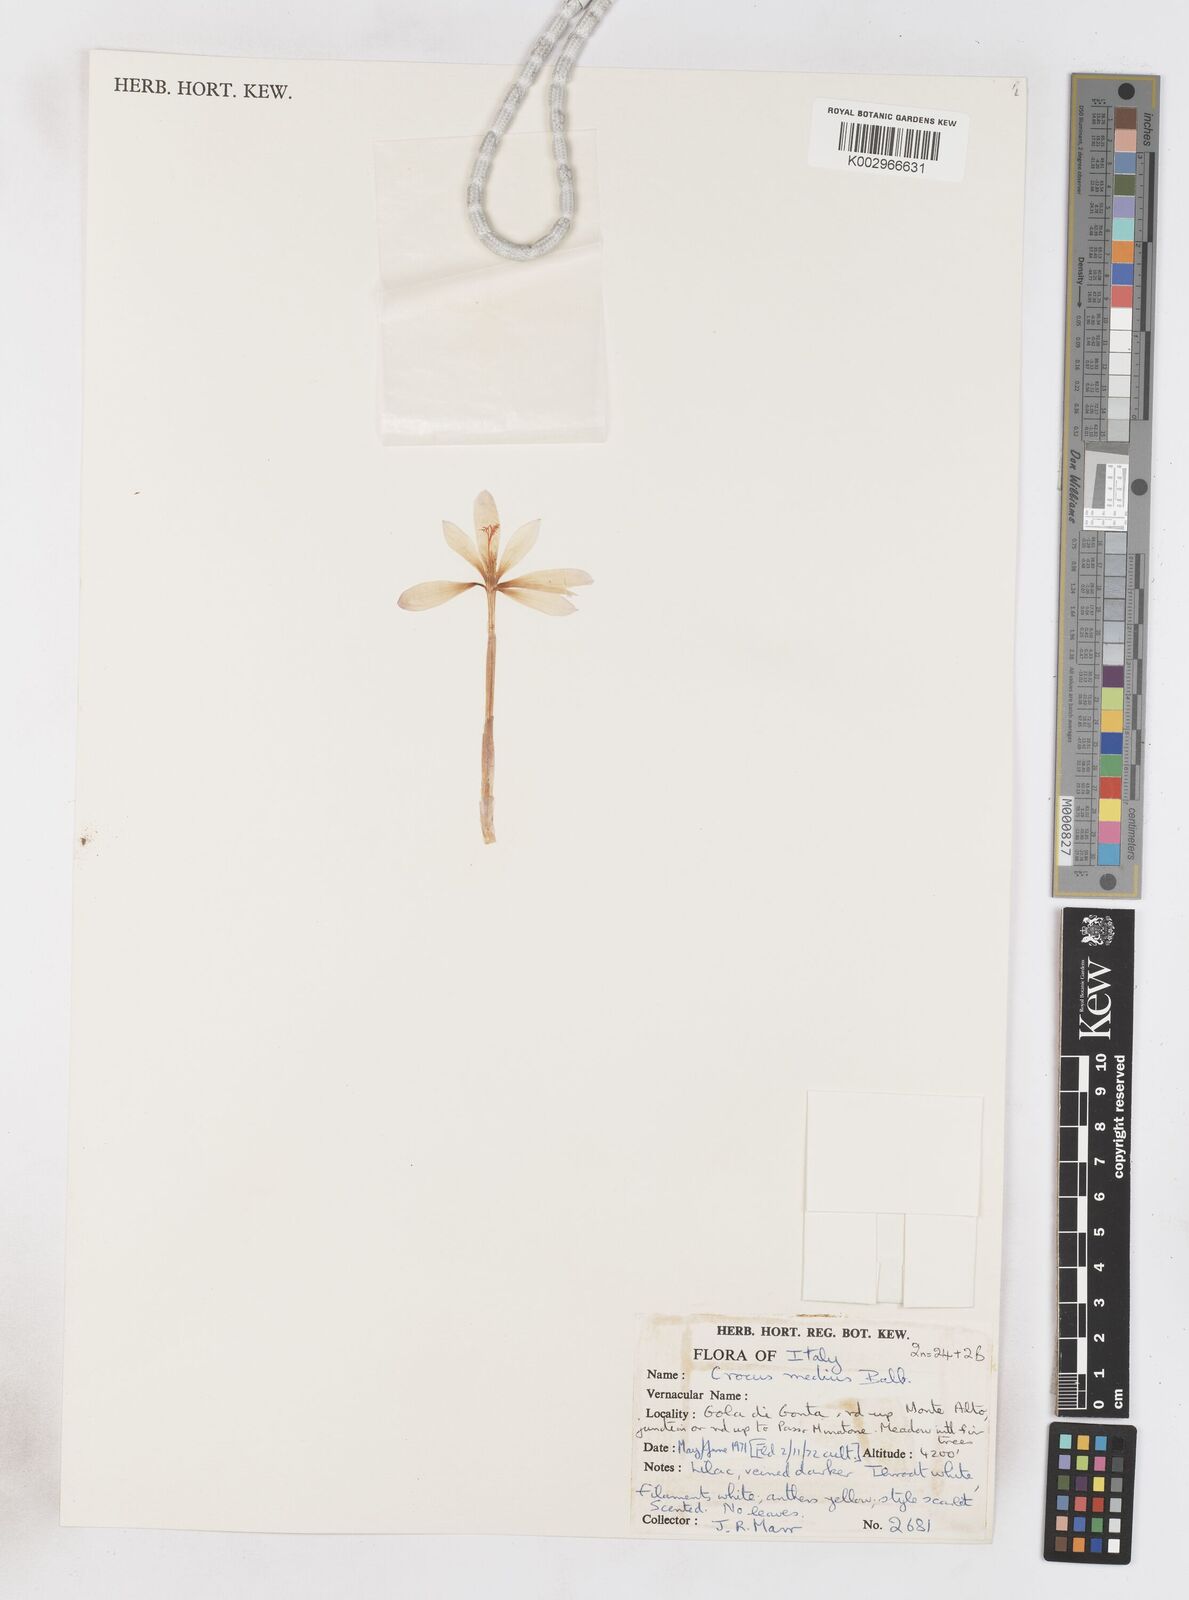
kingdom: Plantae
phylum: Tracheophyta
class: Liliopsida
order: Asparagales
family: Iridaceae
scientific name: Iridaceae
